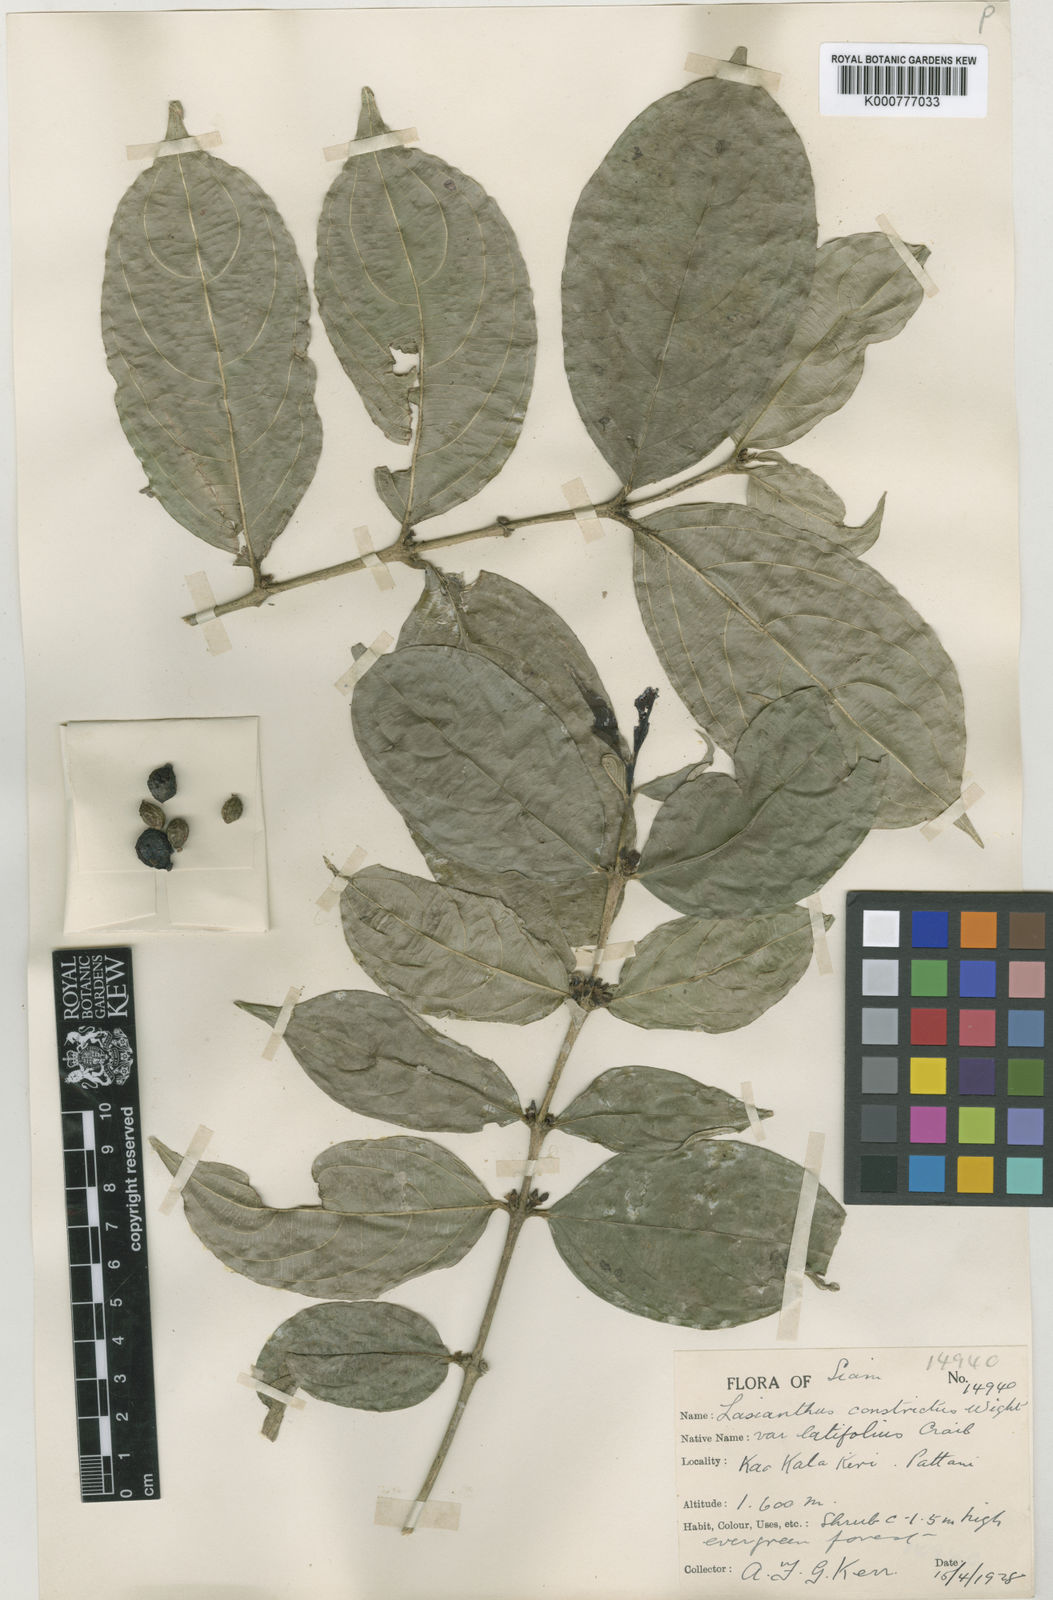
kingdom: Plantae
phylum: Tracheophyta
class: Magnoliopsida
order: Gentianales
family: Rubiaceae
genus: Lasianthus
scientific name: Lasianthus constrictus
